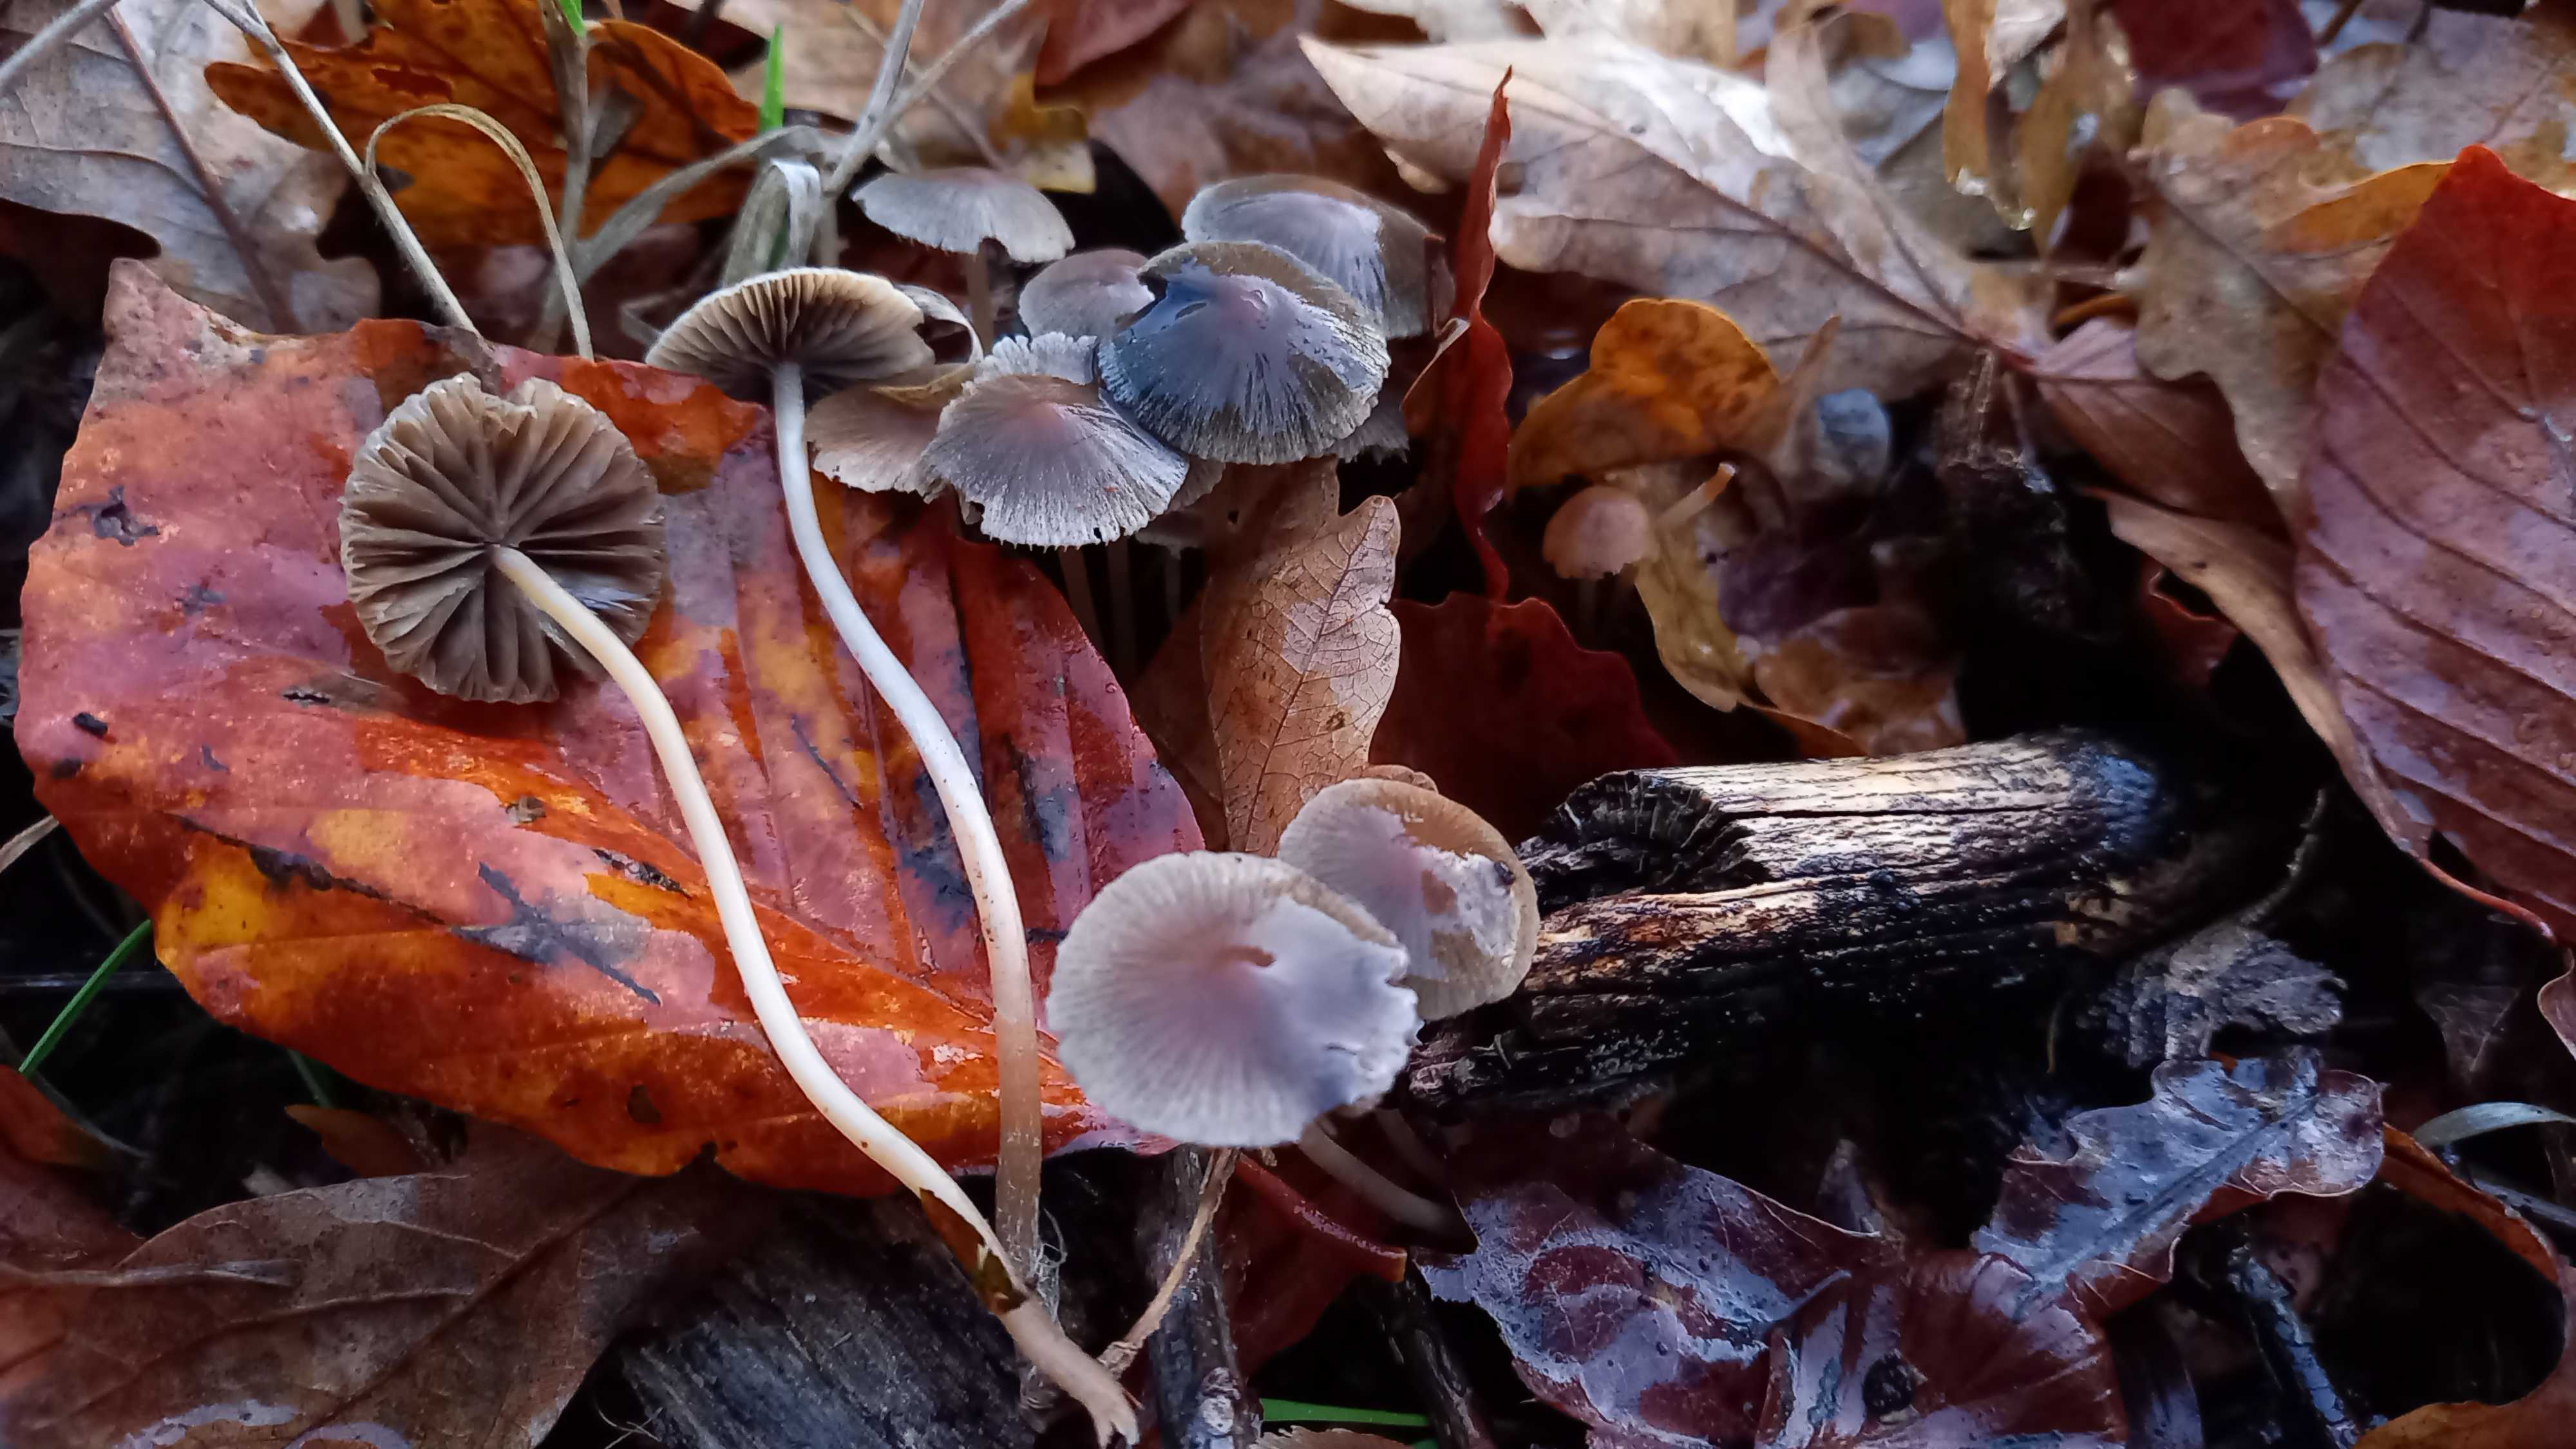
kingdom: Fungi
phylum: Basidiomycota
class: Agaricomycetes
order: Agaricales
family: Psathyrellaceae
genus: Psathyrella
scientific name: Psathyrella
